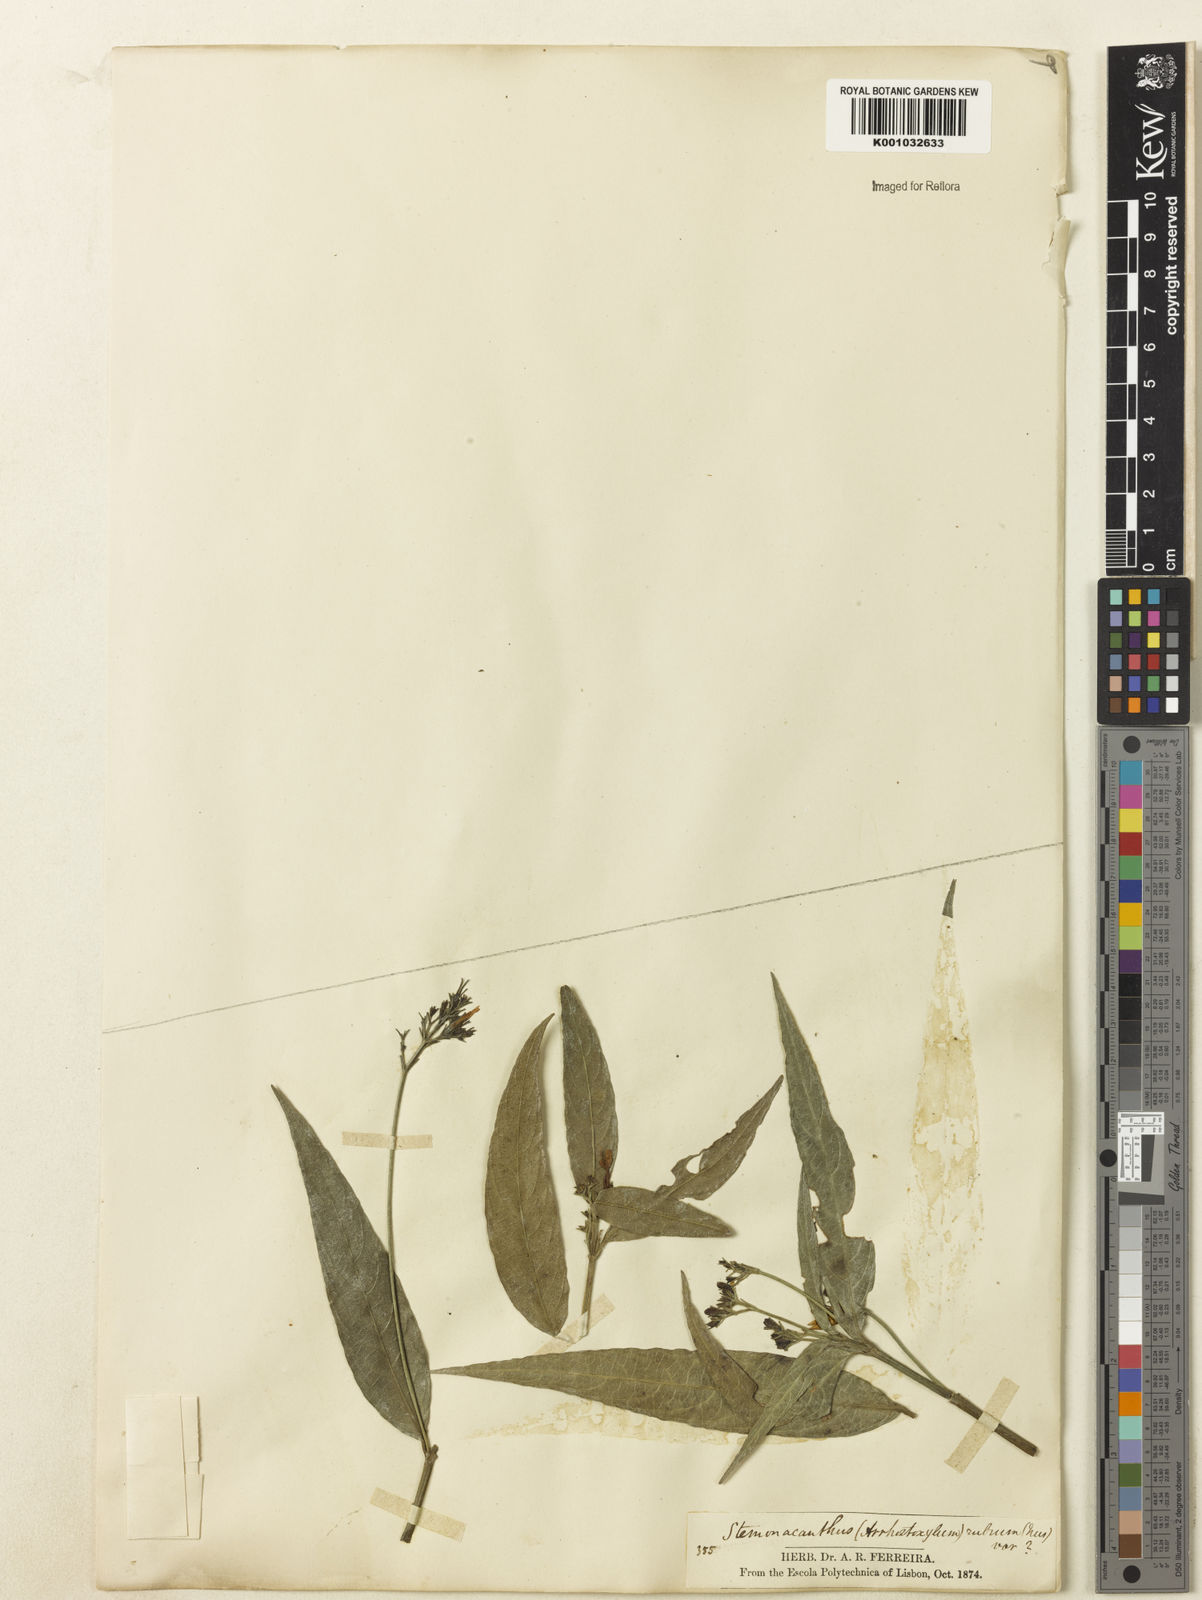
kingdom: Plantae
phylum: Tracheophyta
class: Magnoliopsida
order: Lamiales
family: Acanthaceae
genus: Ruellia
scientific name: Ruellia pedunculata
